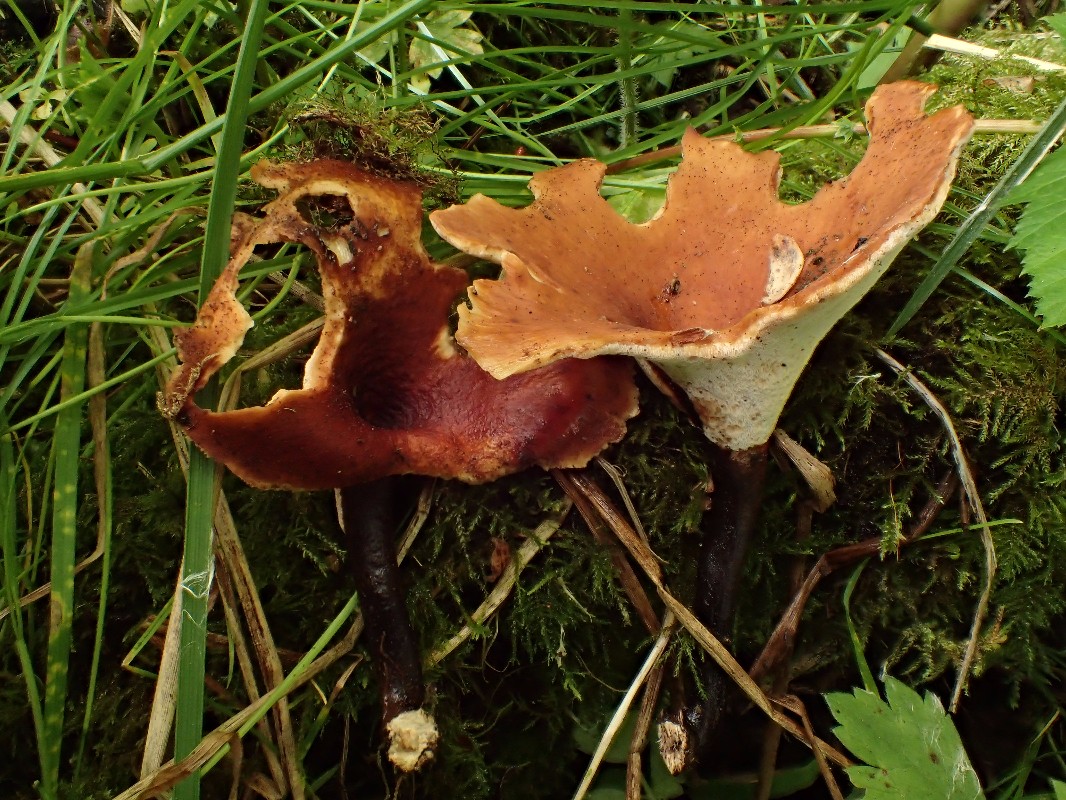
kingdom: Fungi
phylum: Basidiomycota
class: Agaricomycetes
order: Polyporales
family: Polyporaceae
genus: Picipes
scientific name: Picipes tubaeformis
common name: trompet-stilkporesvamp
